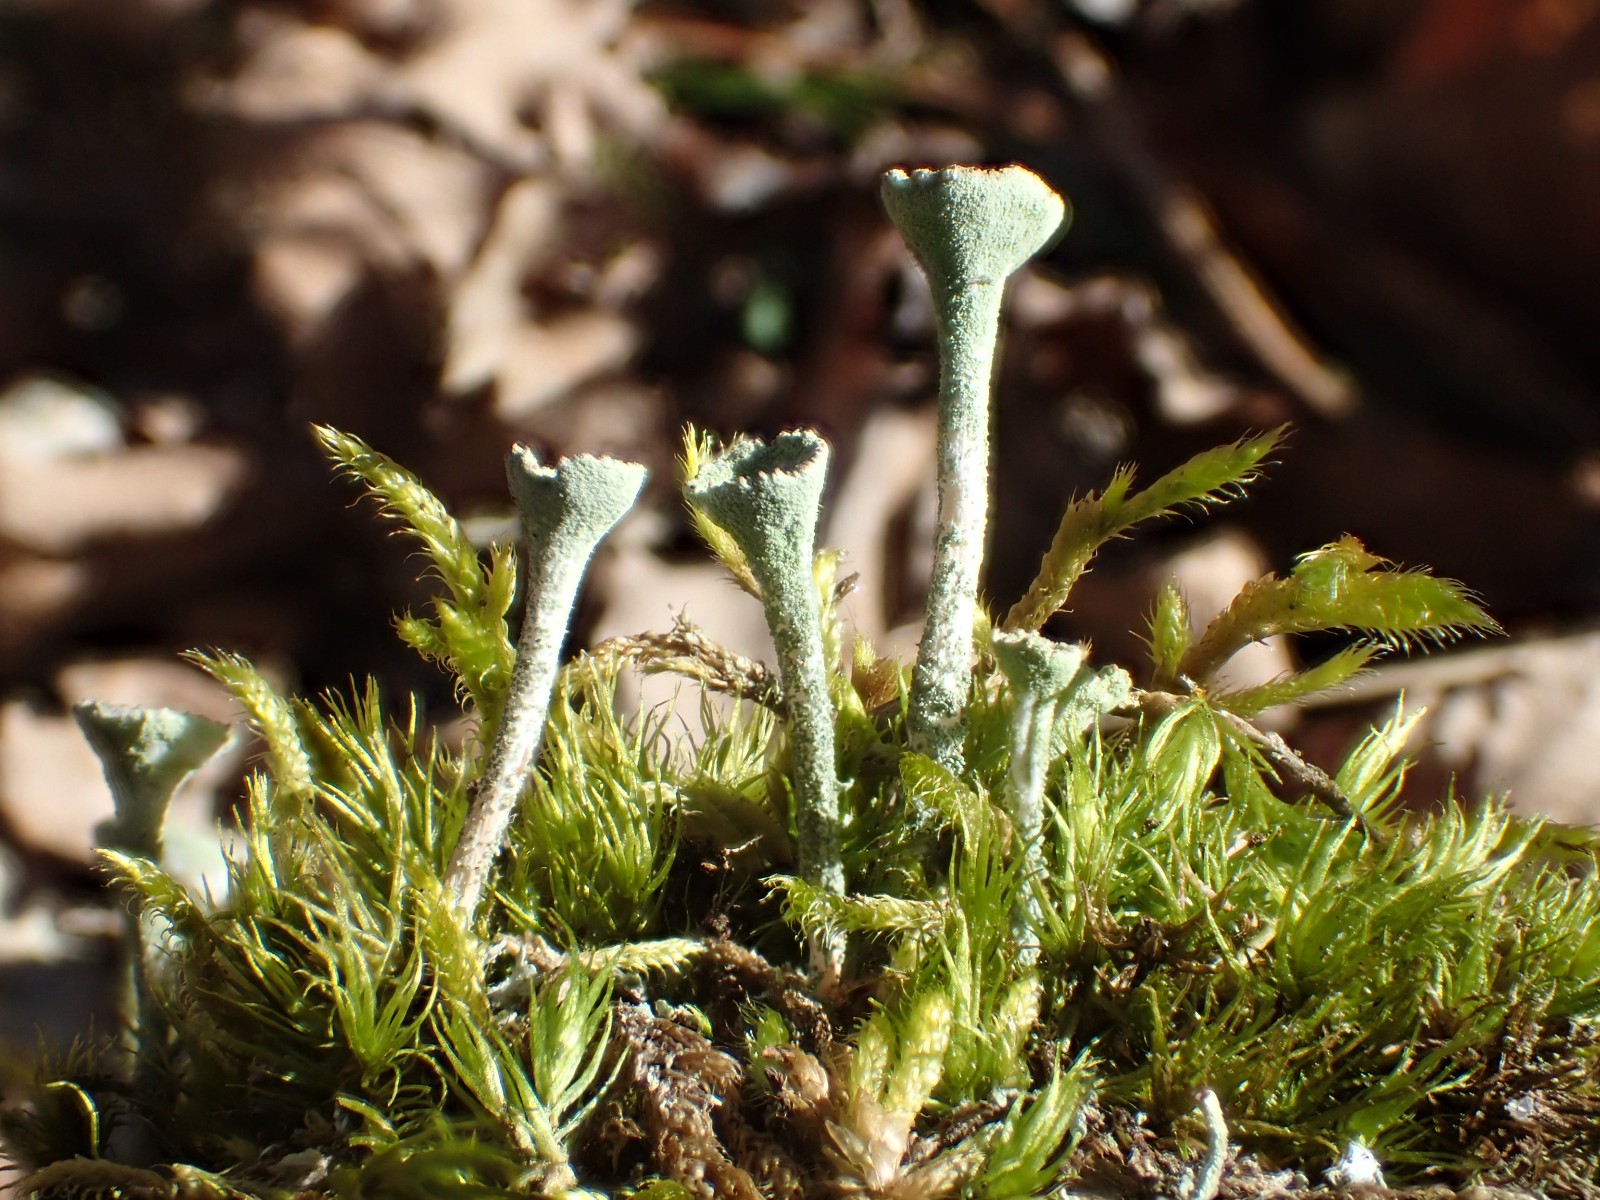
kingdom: Fungi
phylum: Ascomycota
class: Lecanoromycetes
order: Lecanorales
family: Cladoniaceae
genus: Cladonia
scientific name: Cladonia fimbriata
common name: bleggrøn bægerlav
